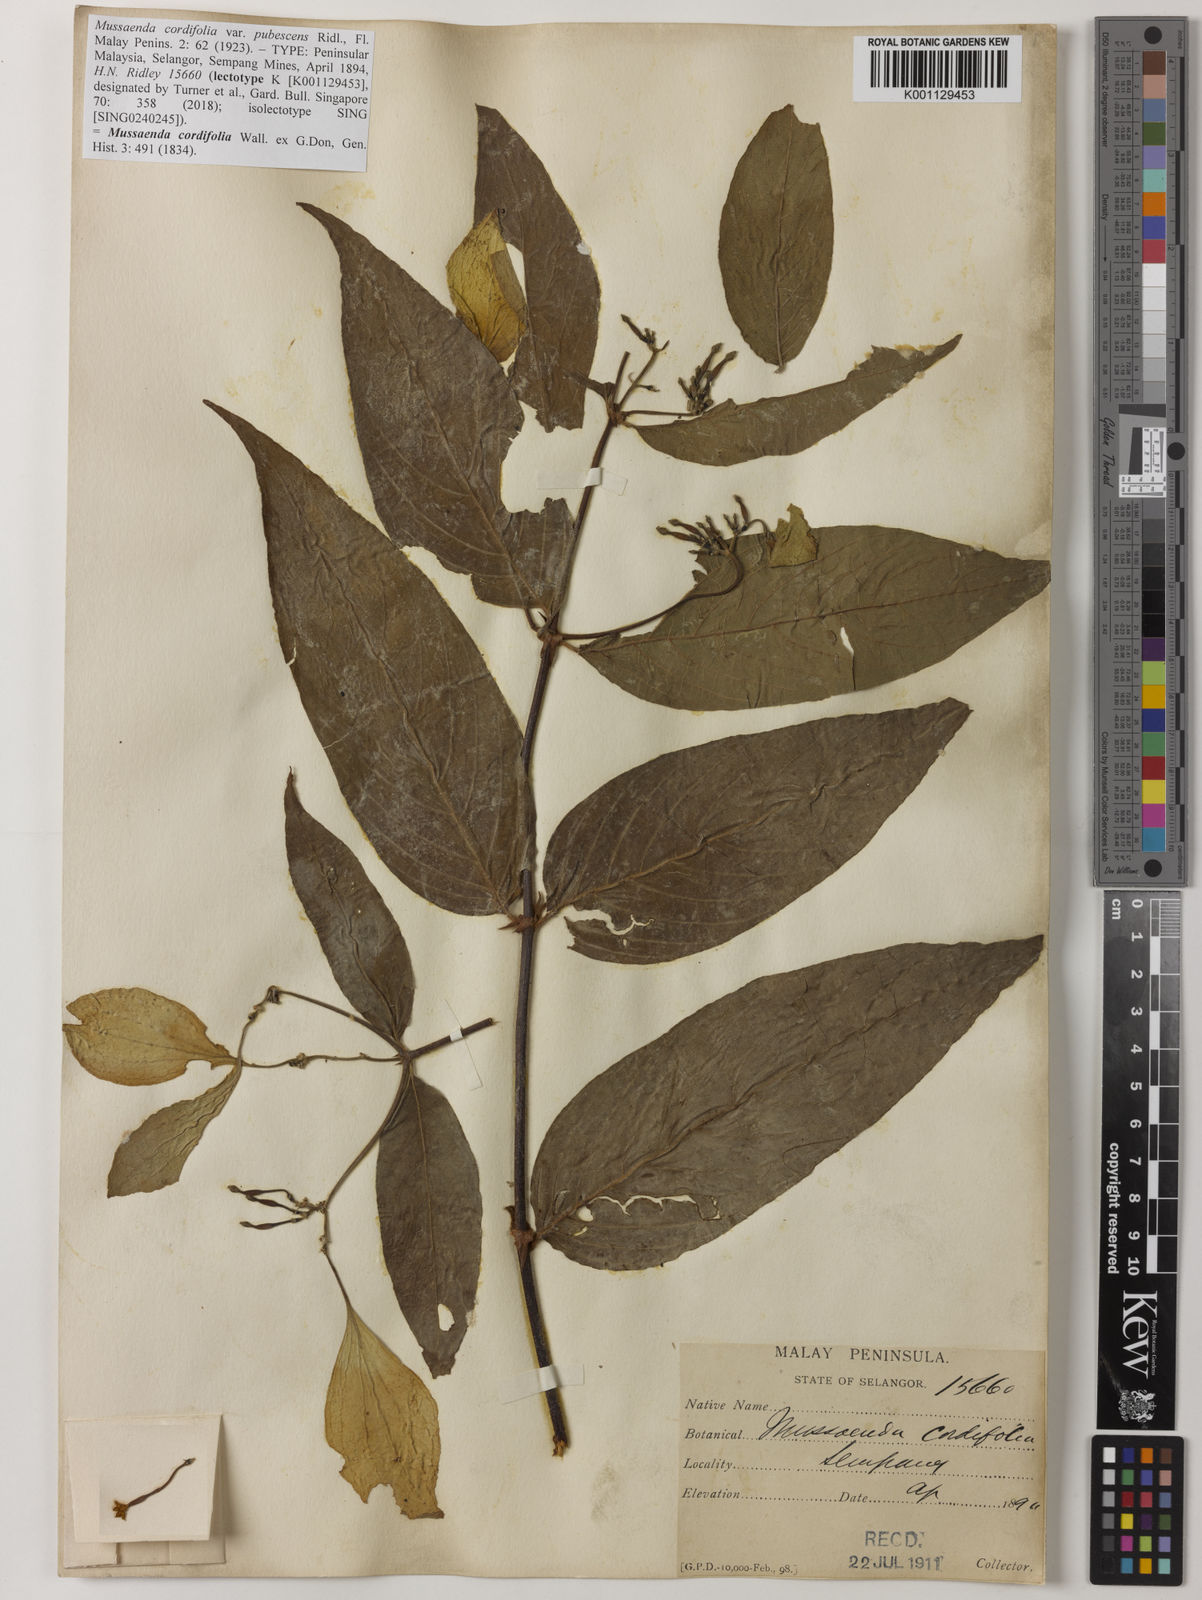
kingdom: Plantae
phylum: Tracheophyta
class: Magnoliopsida
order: Gentianales
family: Rubiaceae
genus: Mussaenda
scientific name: Mussaenda cordifolia
